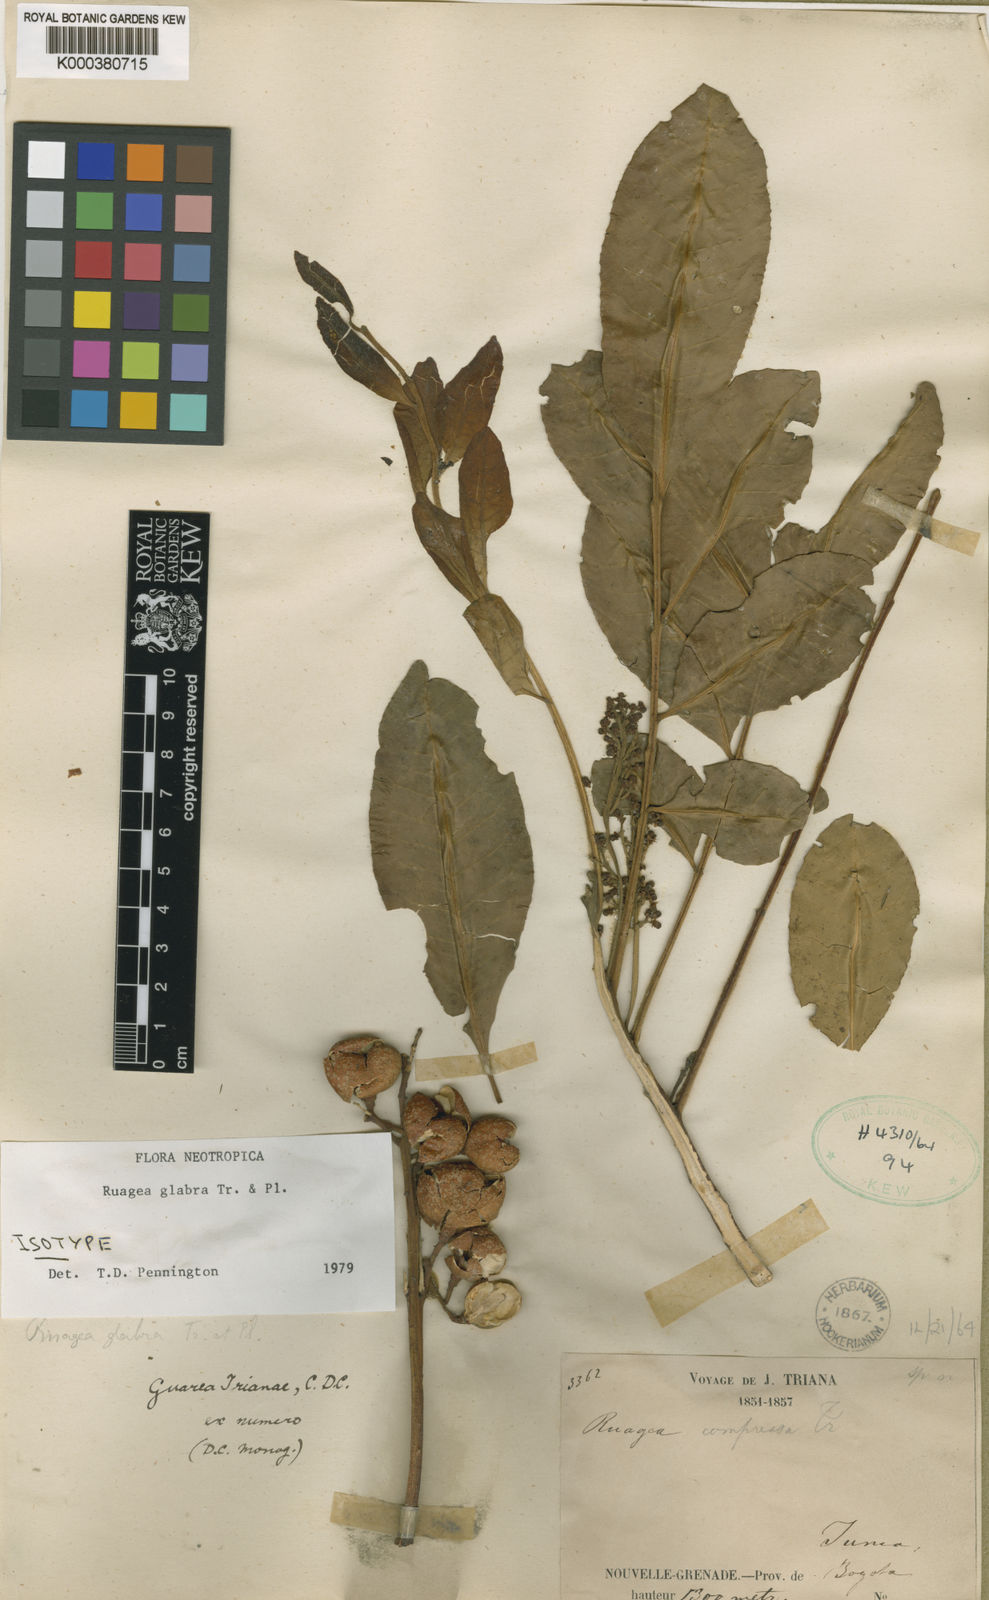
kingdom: Plantae
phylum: Tracheophyta
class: Magnoliopsida
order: Sapindales
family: Meliaceae
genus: Ruagea
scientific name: Ruagea glabra
